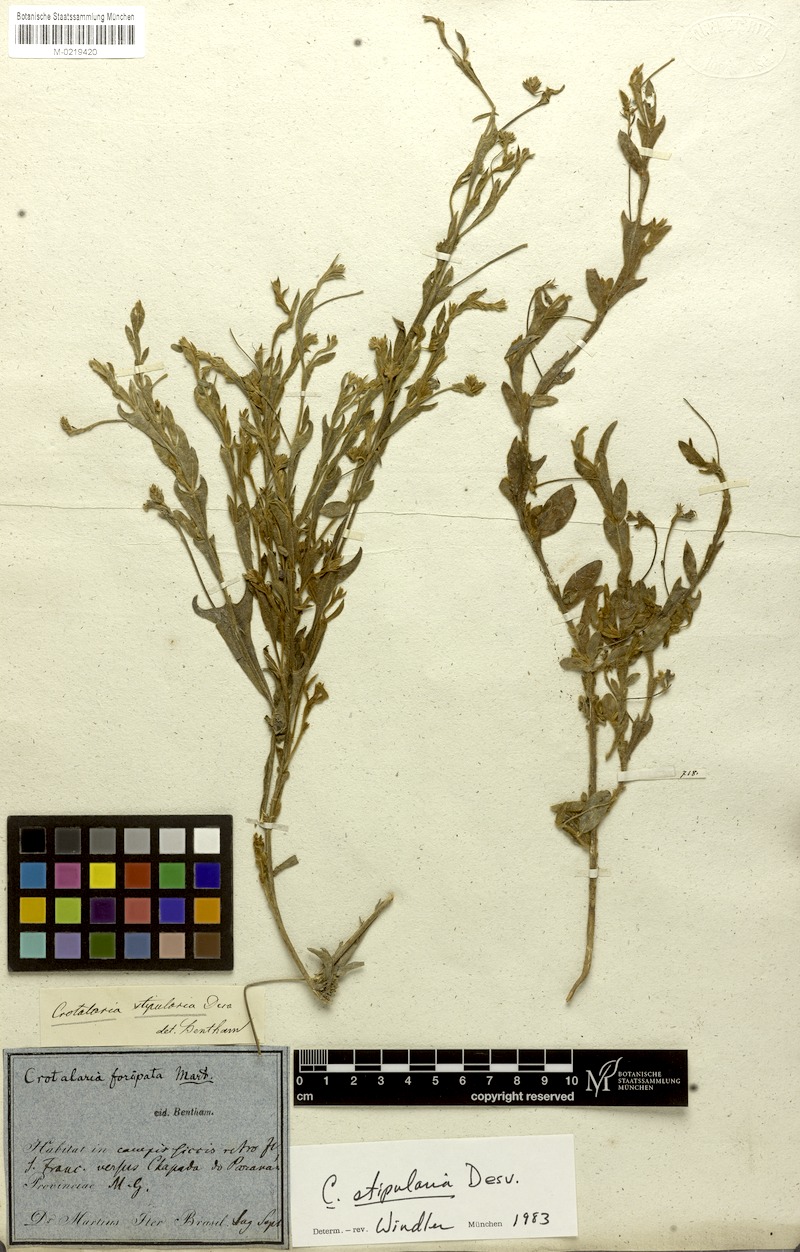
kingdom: Plantae
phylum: Tracheophyta
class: Magnoliopsida
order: Fabales
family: Fabaceae
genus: Crotalaria
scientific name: Crotalaria stipularia
